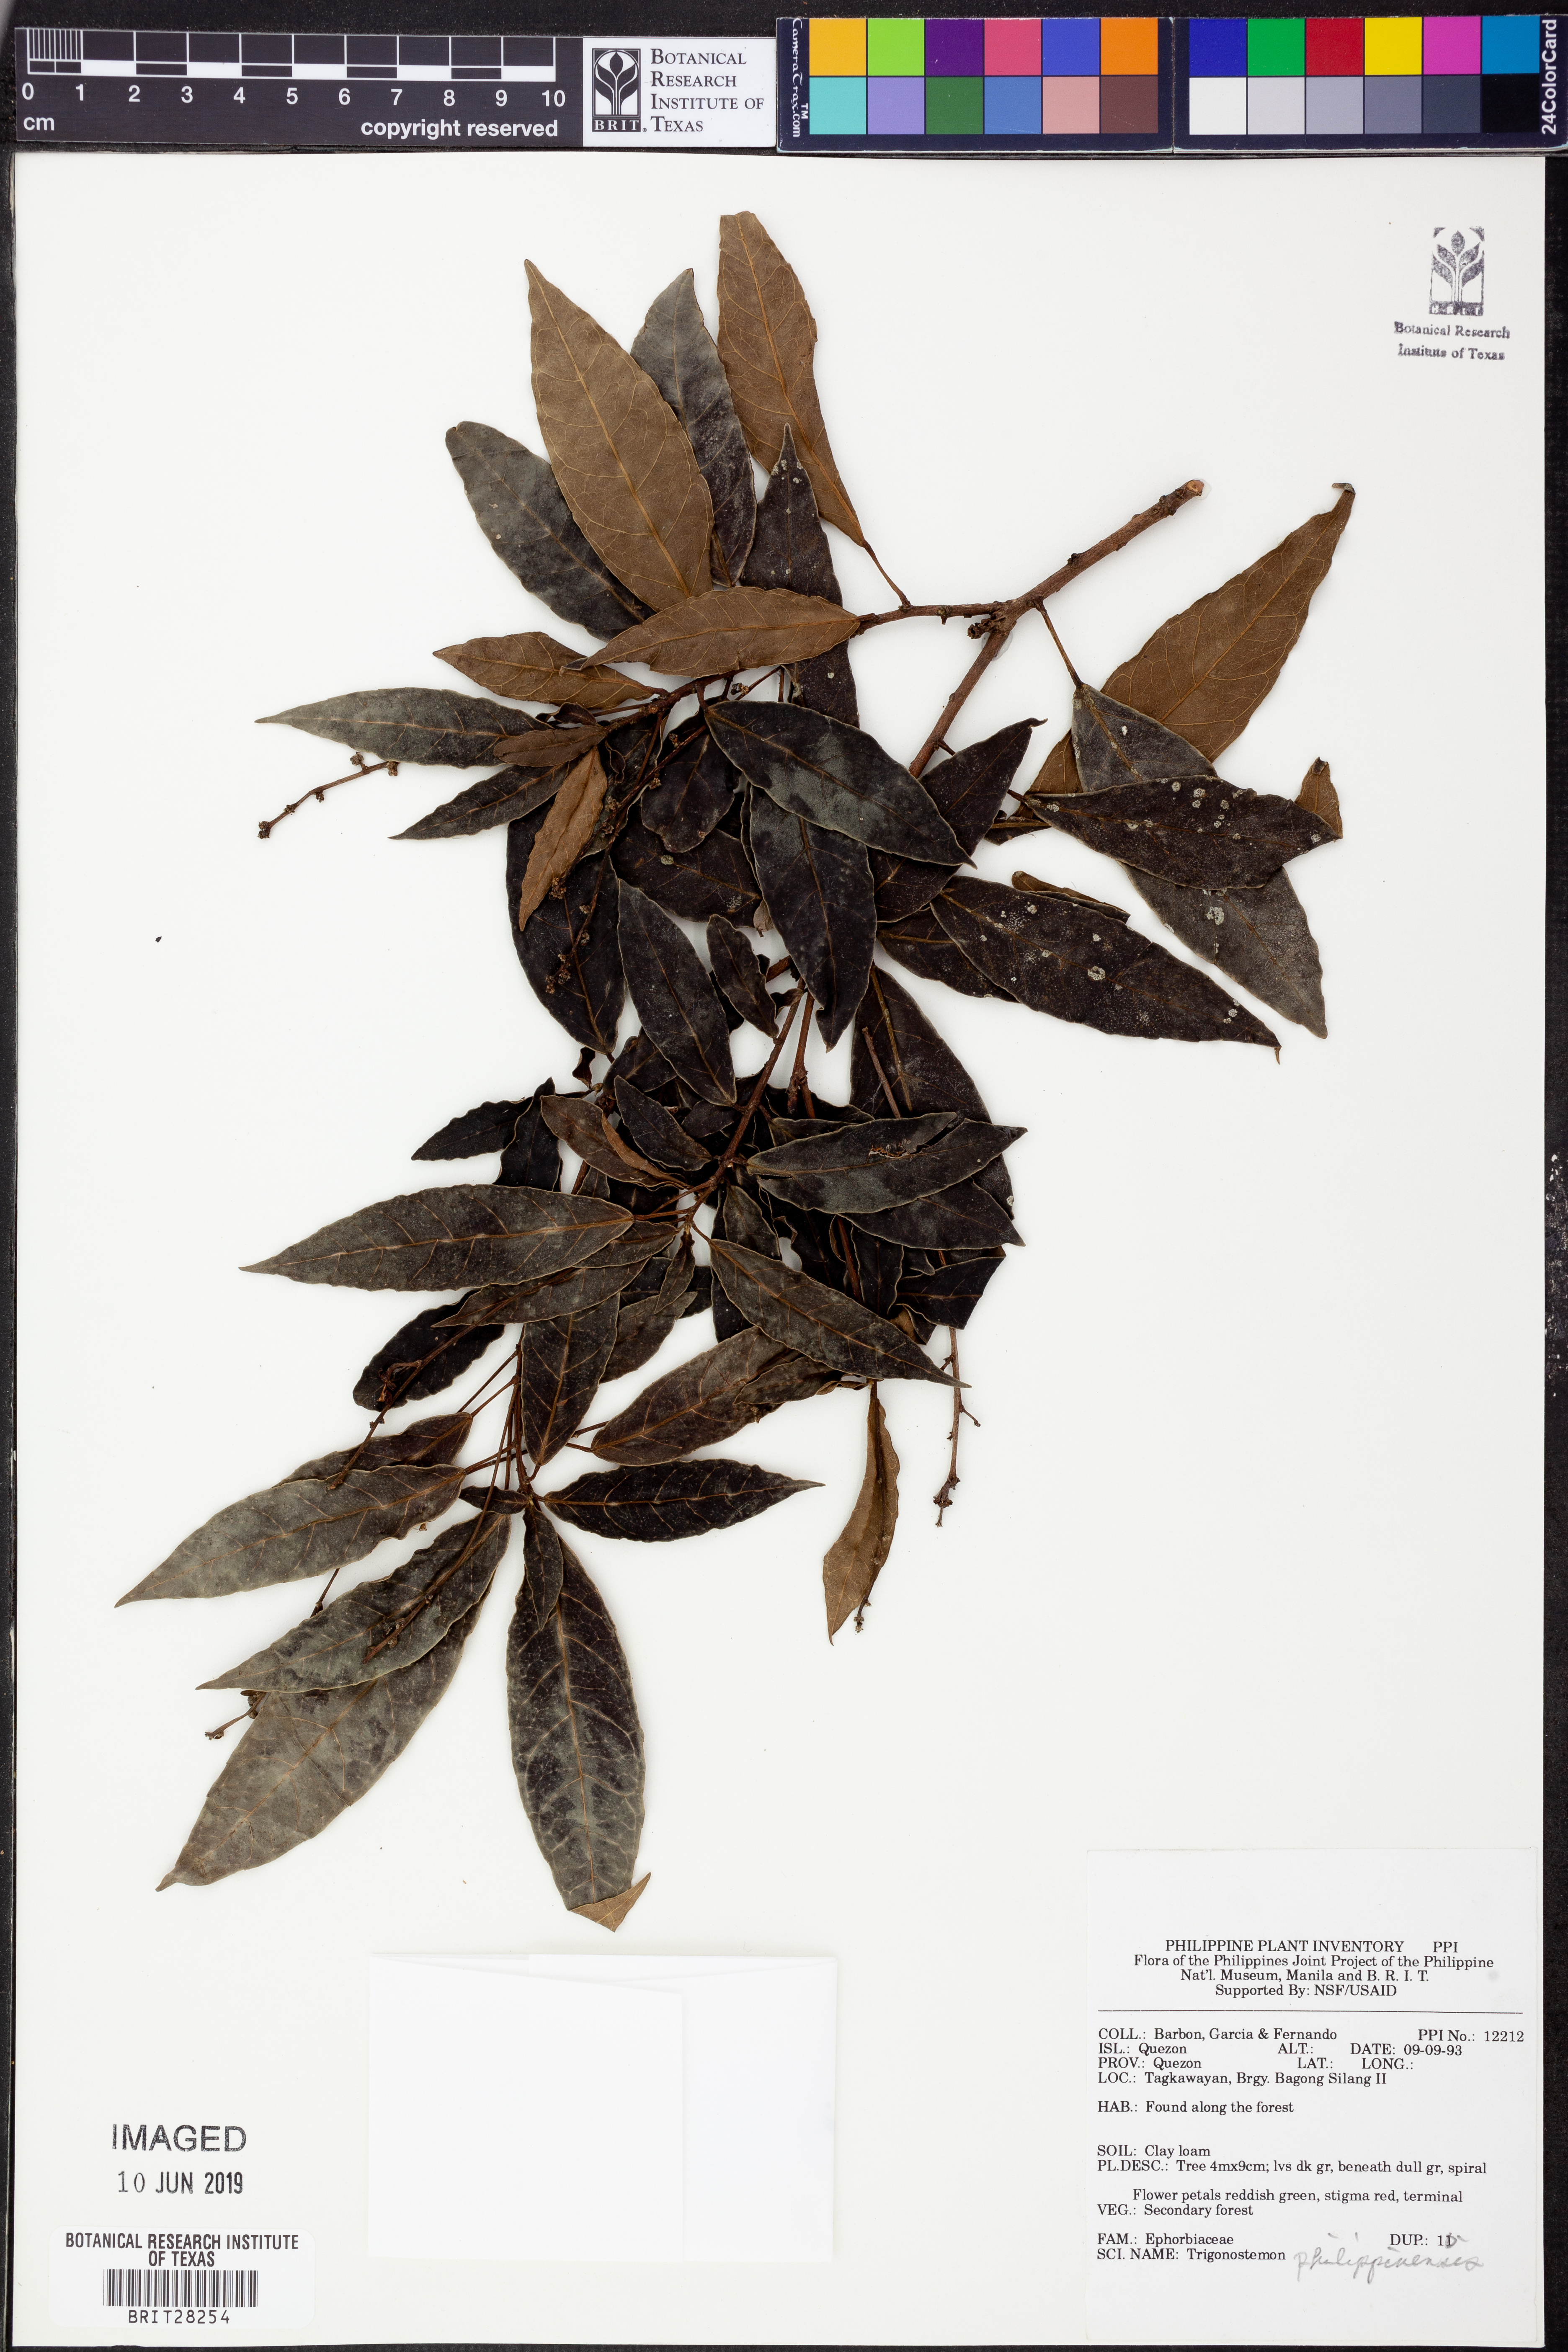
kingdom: Plantae
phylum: Tracheophyta
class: Magnoliopsida
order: Malpighiales
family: Euphorbiaceae
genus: Trigonostemon
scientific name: Trigonostemon philippinensis
